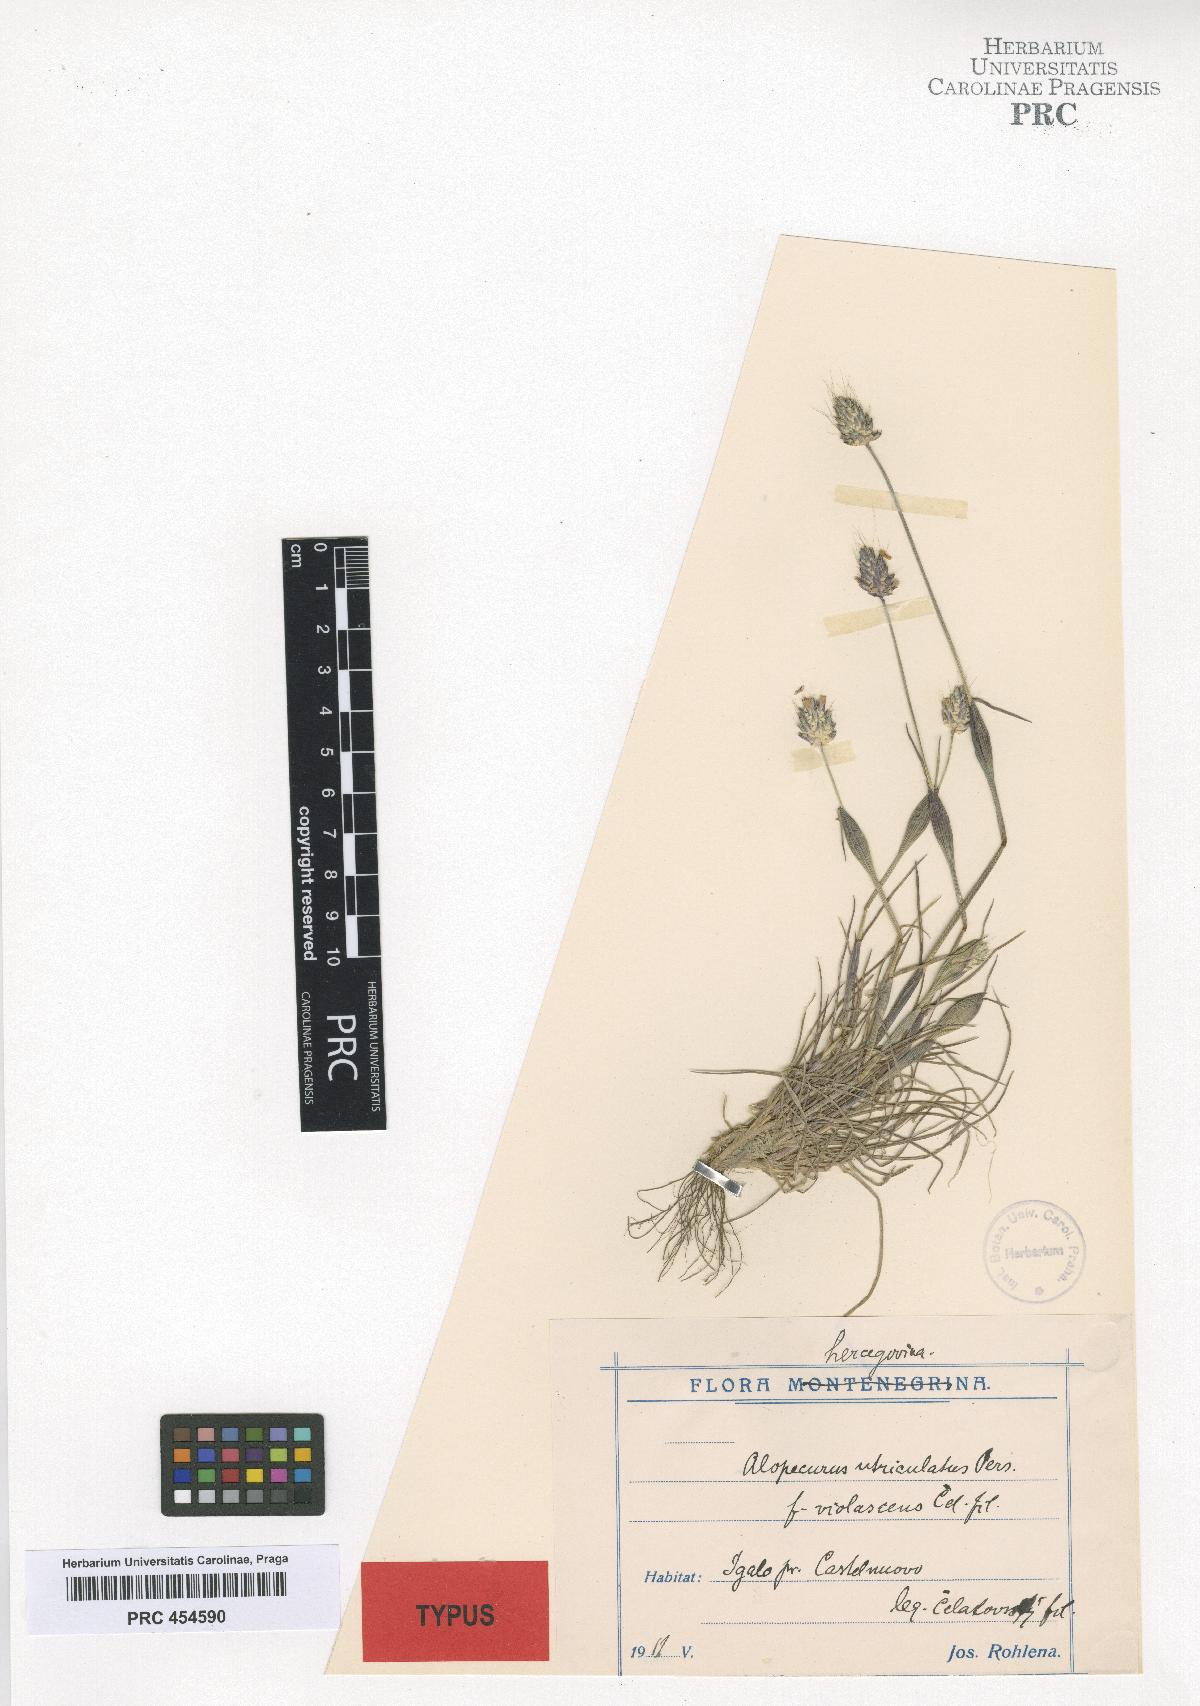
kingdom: Plantae
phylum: Tracheophyta
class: Liliopsida
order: Poales
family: Poaceae
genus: Alopecurus
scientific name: Alopecurus utriculatus
